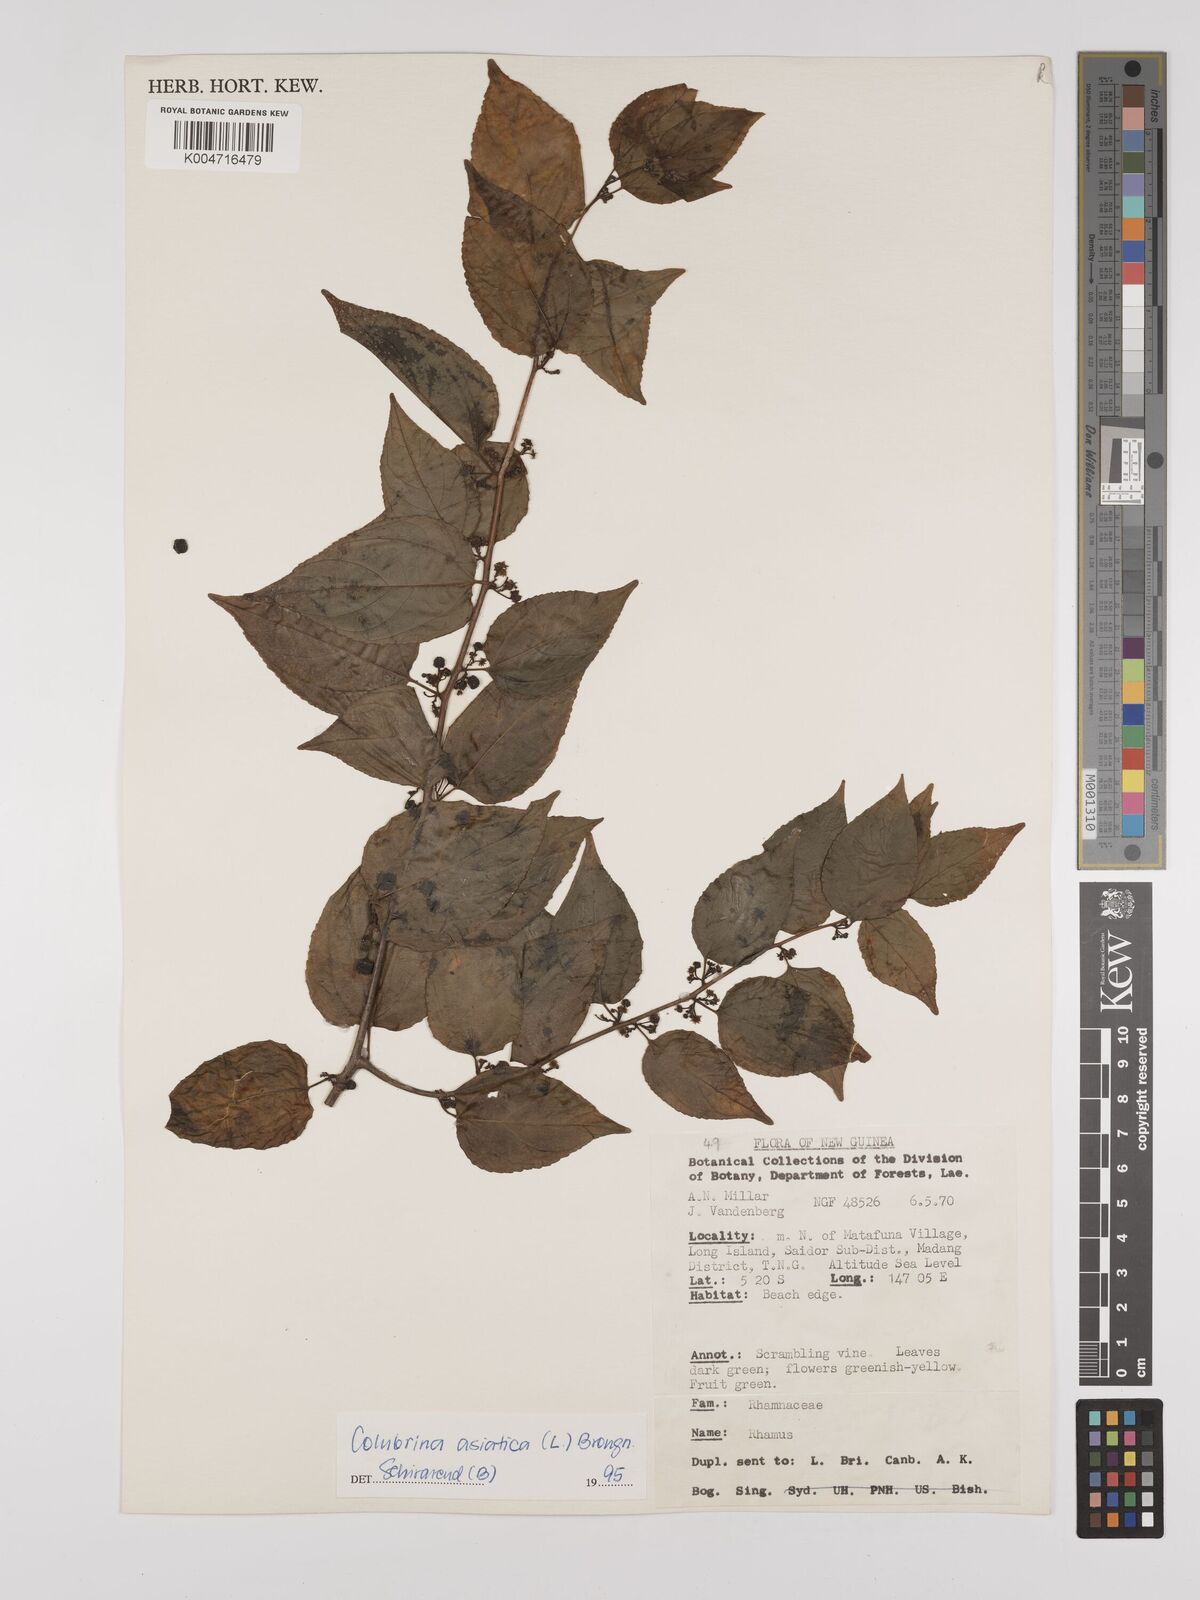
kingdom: Plantae
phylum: Tracheophyta
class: Magnoliopsida
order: Rosales
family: Rhamnaceae
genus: Colubrina
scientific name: Colubrina asiatica
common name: Asian nakedwood
